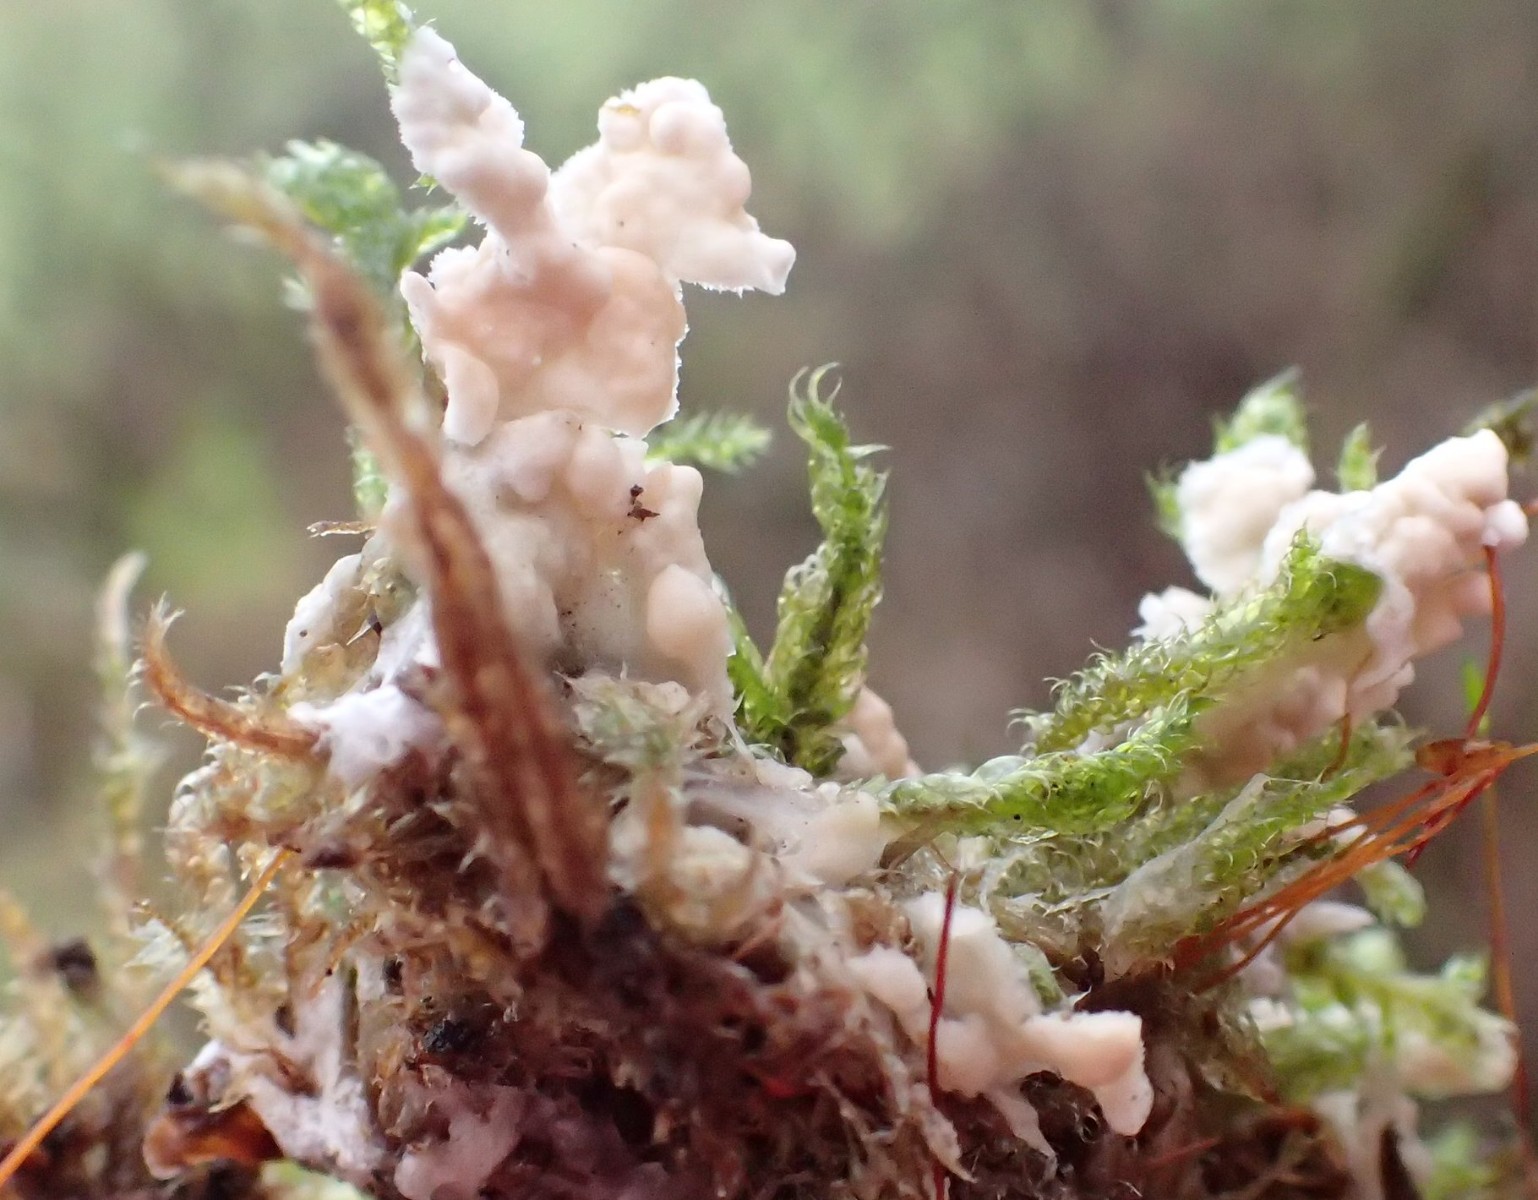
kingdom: Fungi
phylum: Basidiomycota
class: Agaricomycetes
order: Agaricales
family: Hygrophoraceae
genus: Arrhenia
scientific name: Arrhenia retiruga
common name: lille fontænehat
